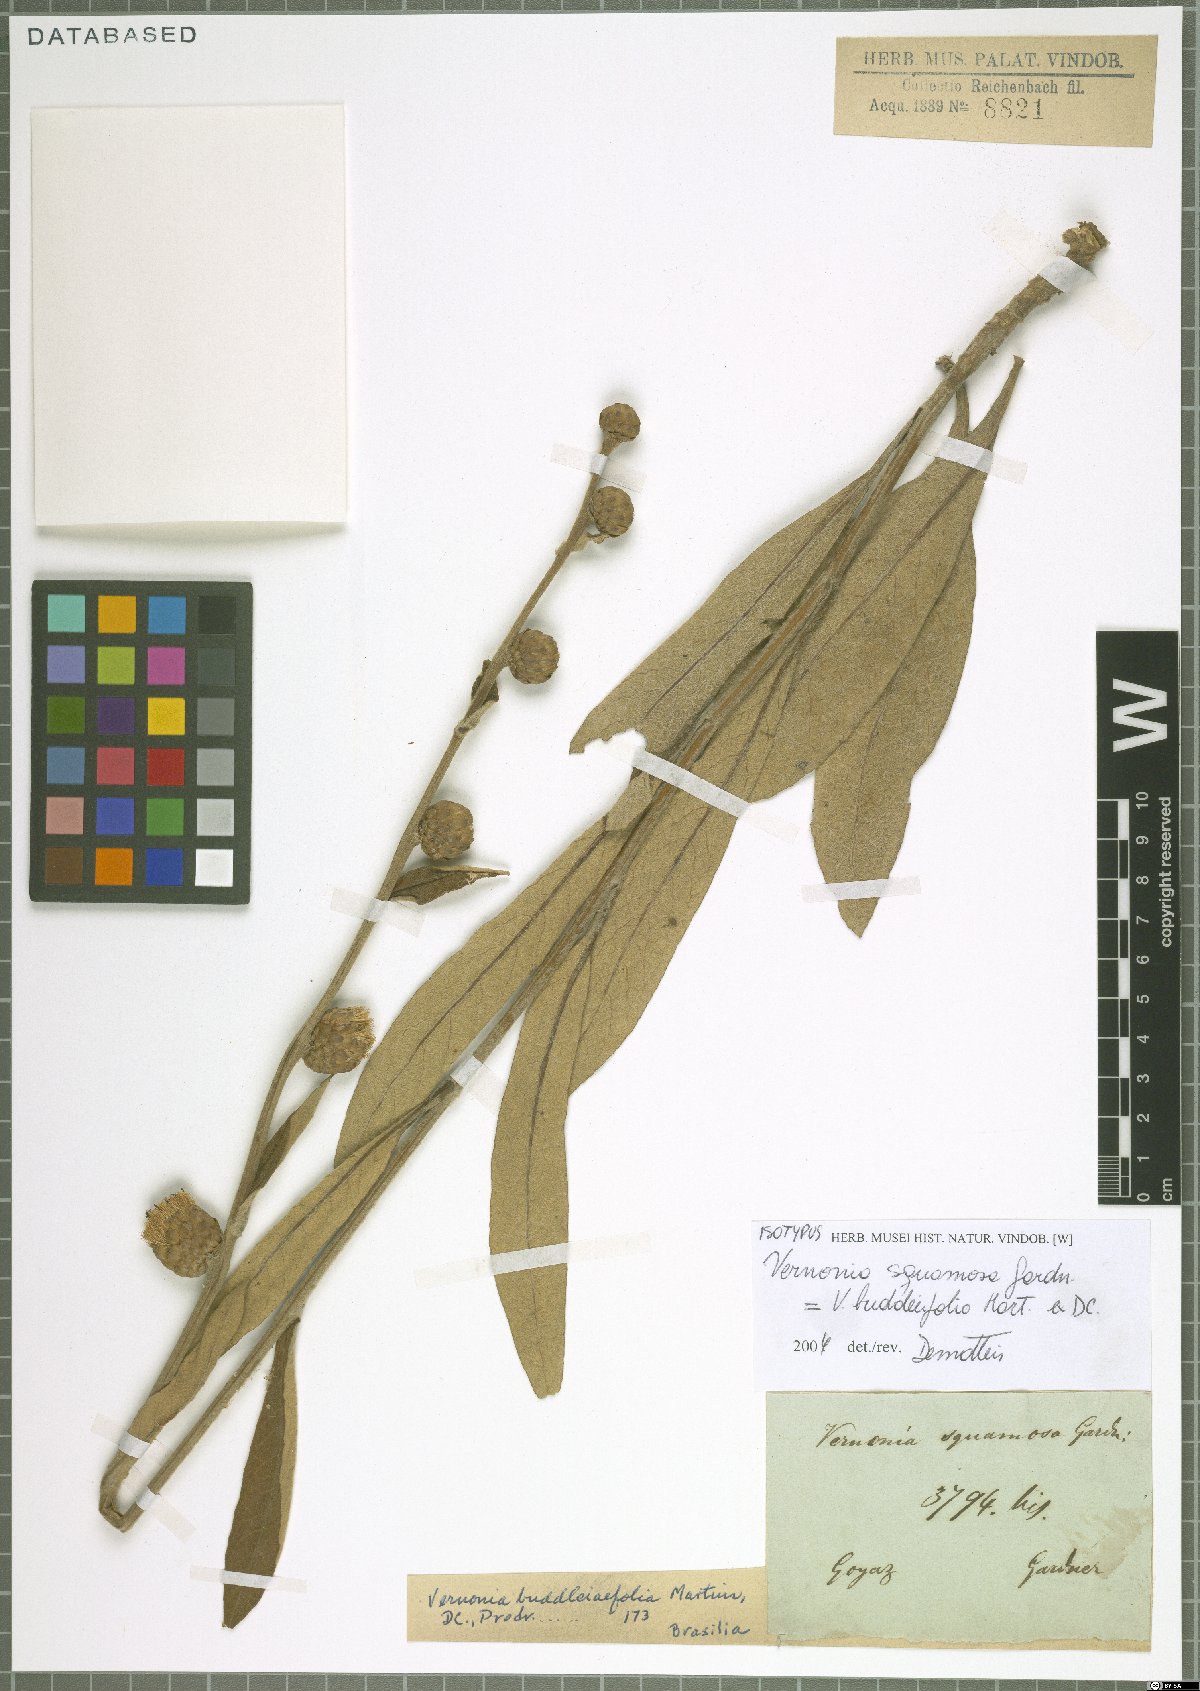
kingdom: Plantae
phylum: Tracheophyta
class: Magnoliopsida
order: Asterales
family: Asteraceae
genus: Lessingianthus
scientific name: Lessingianthus buddlejifolius
